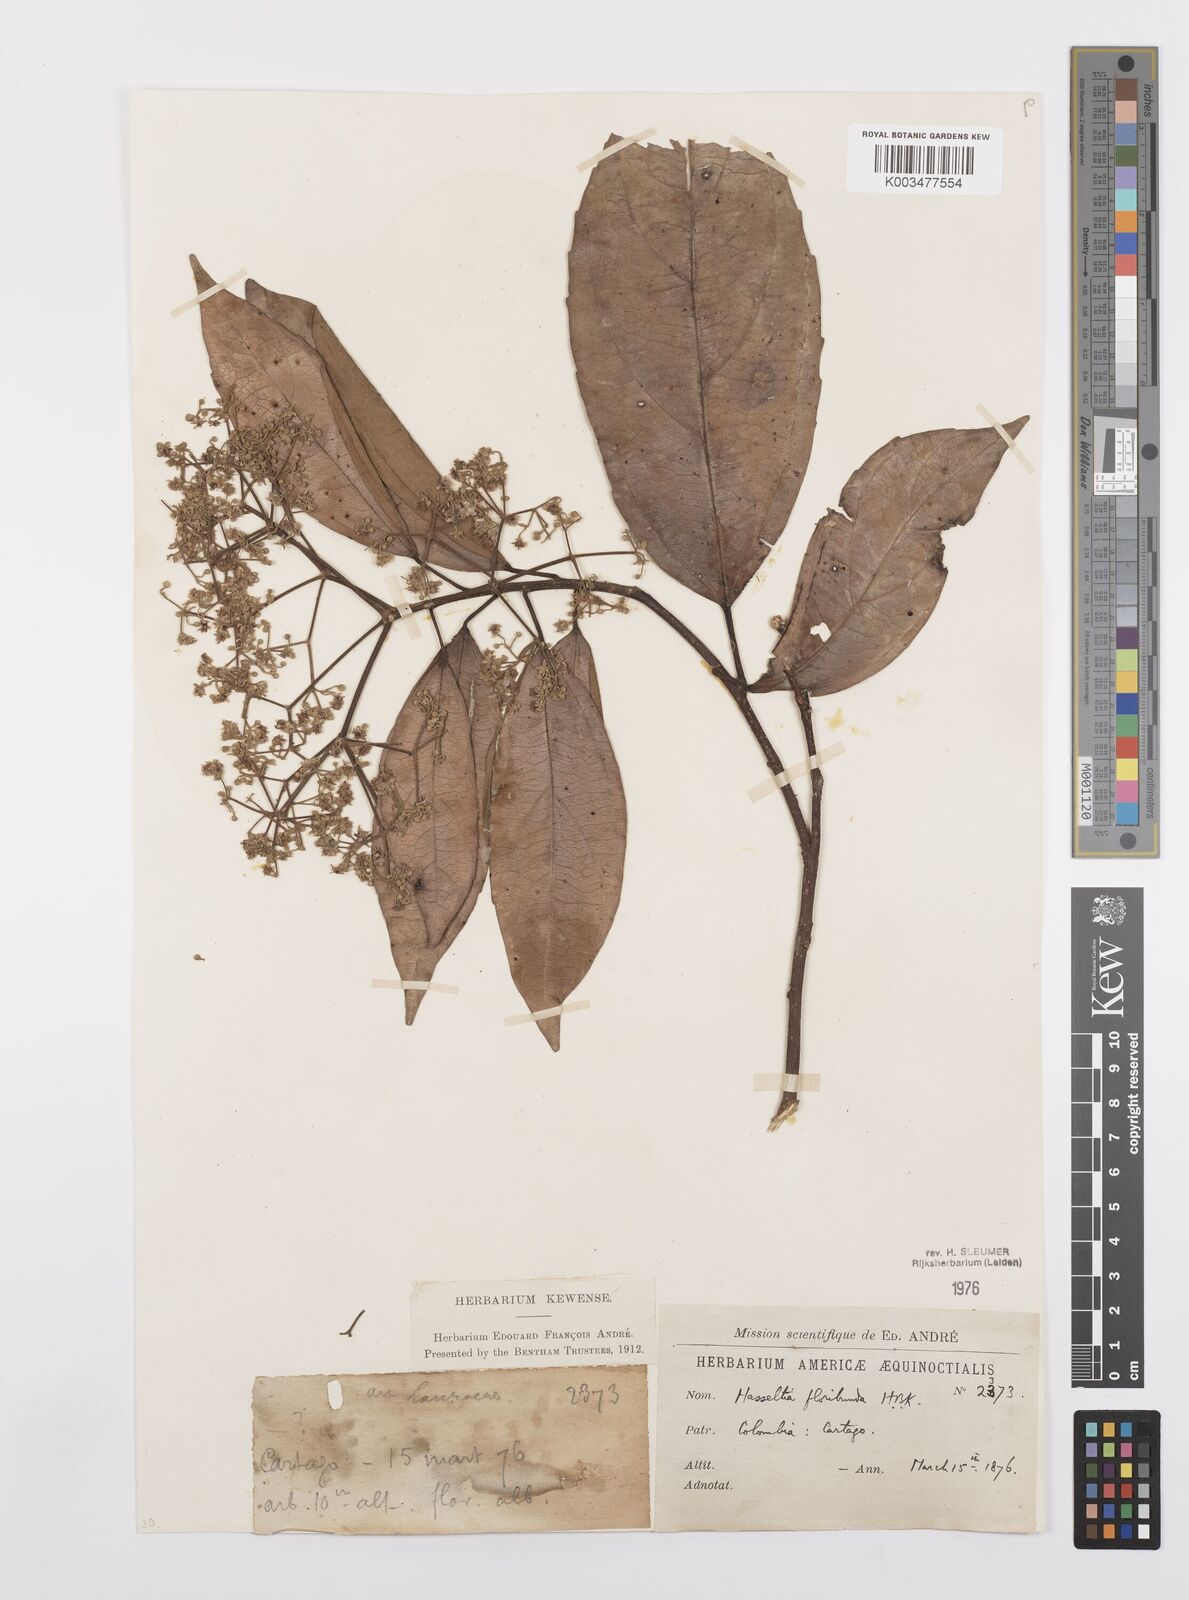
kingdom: Plantae
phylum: Tracheophyta
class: Magnoliopsida
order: Malpighiales
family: Salicaceae
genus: Hasseltia
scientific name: Hasseltia floribunda
